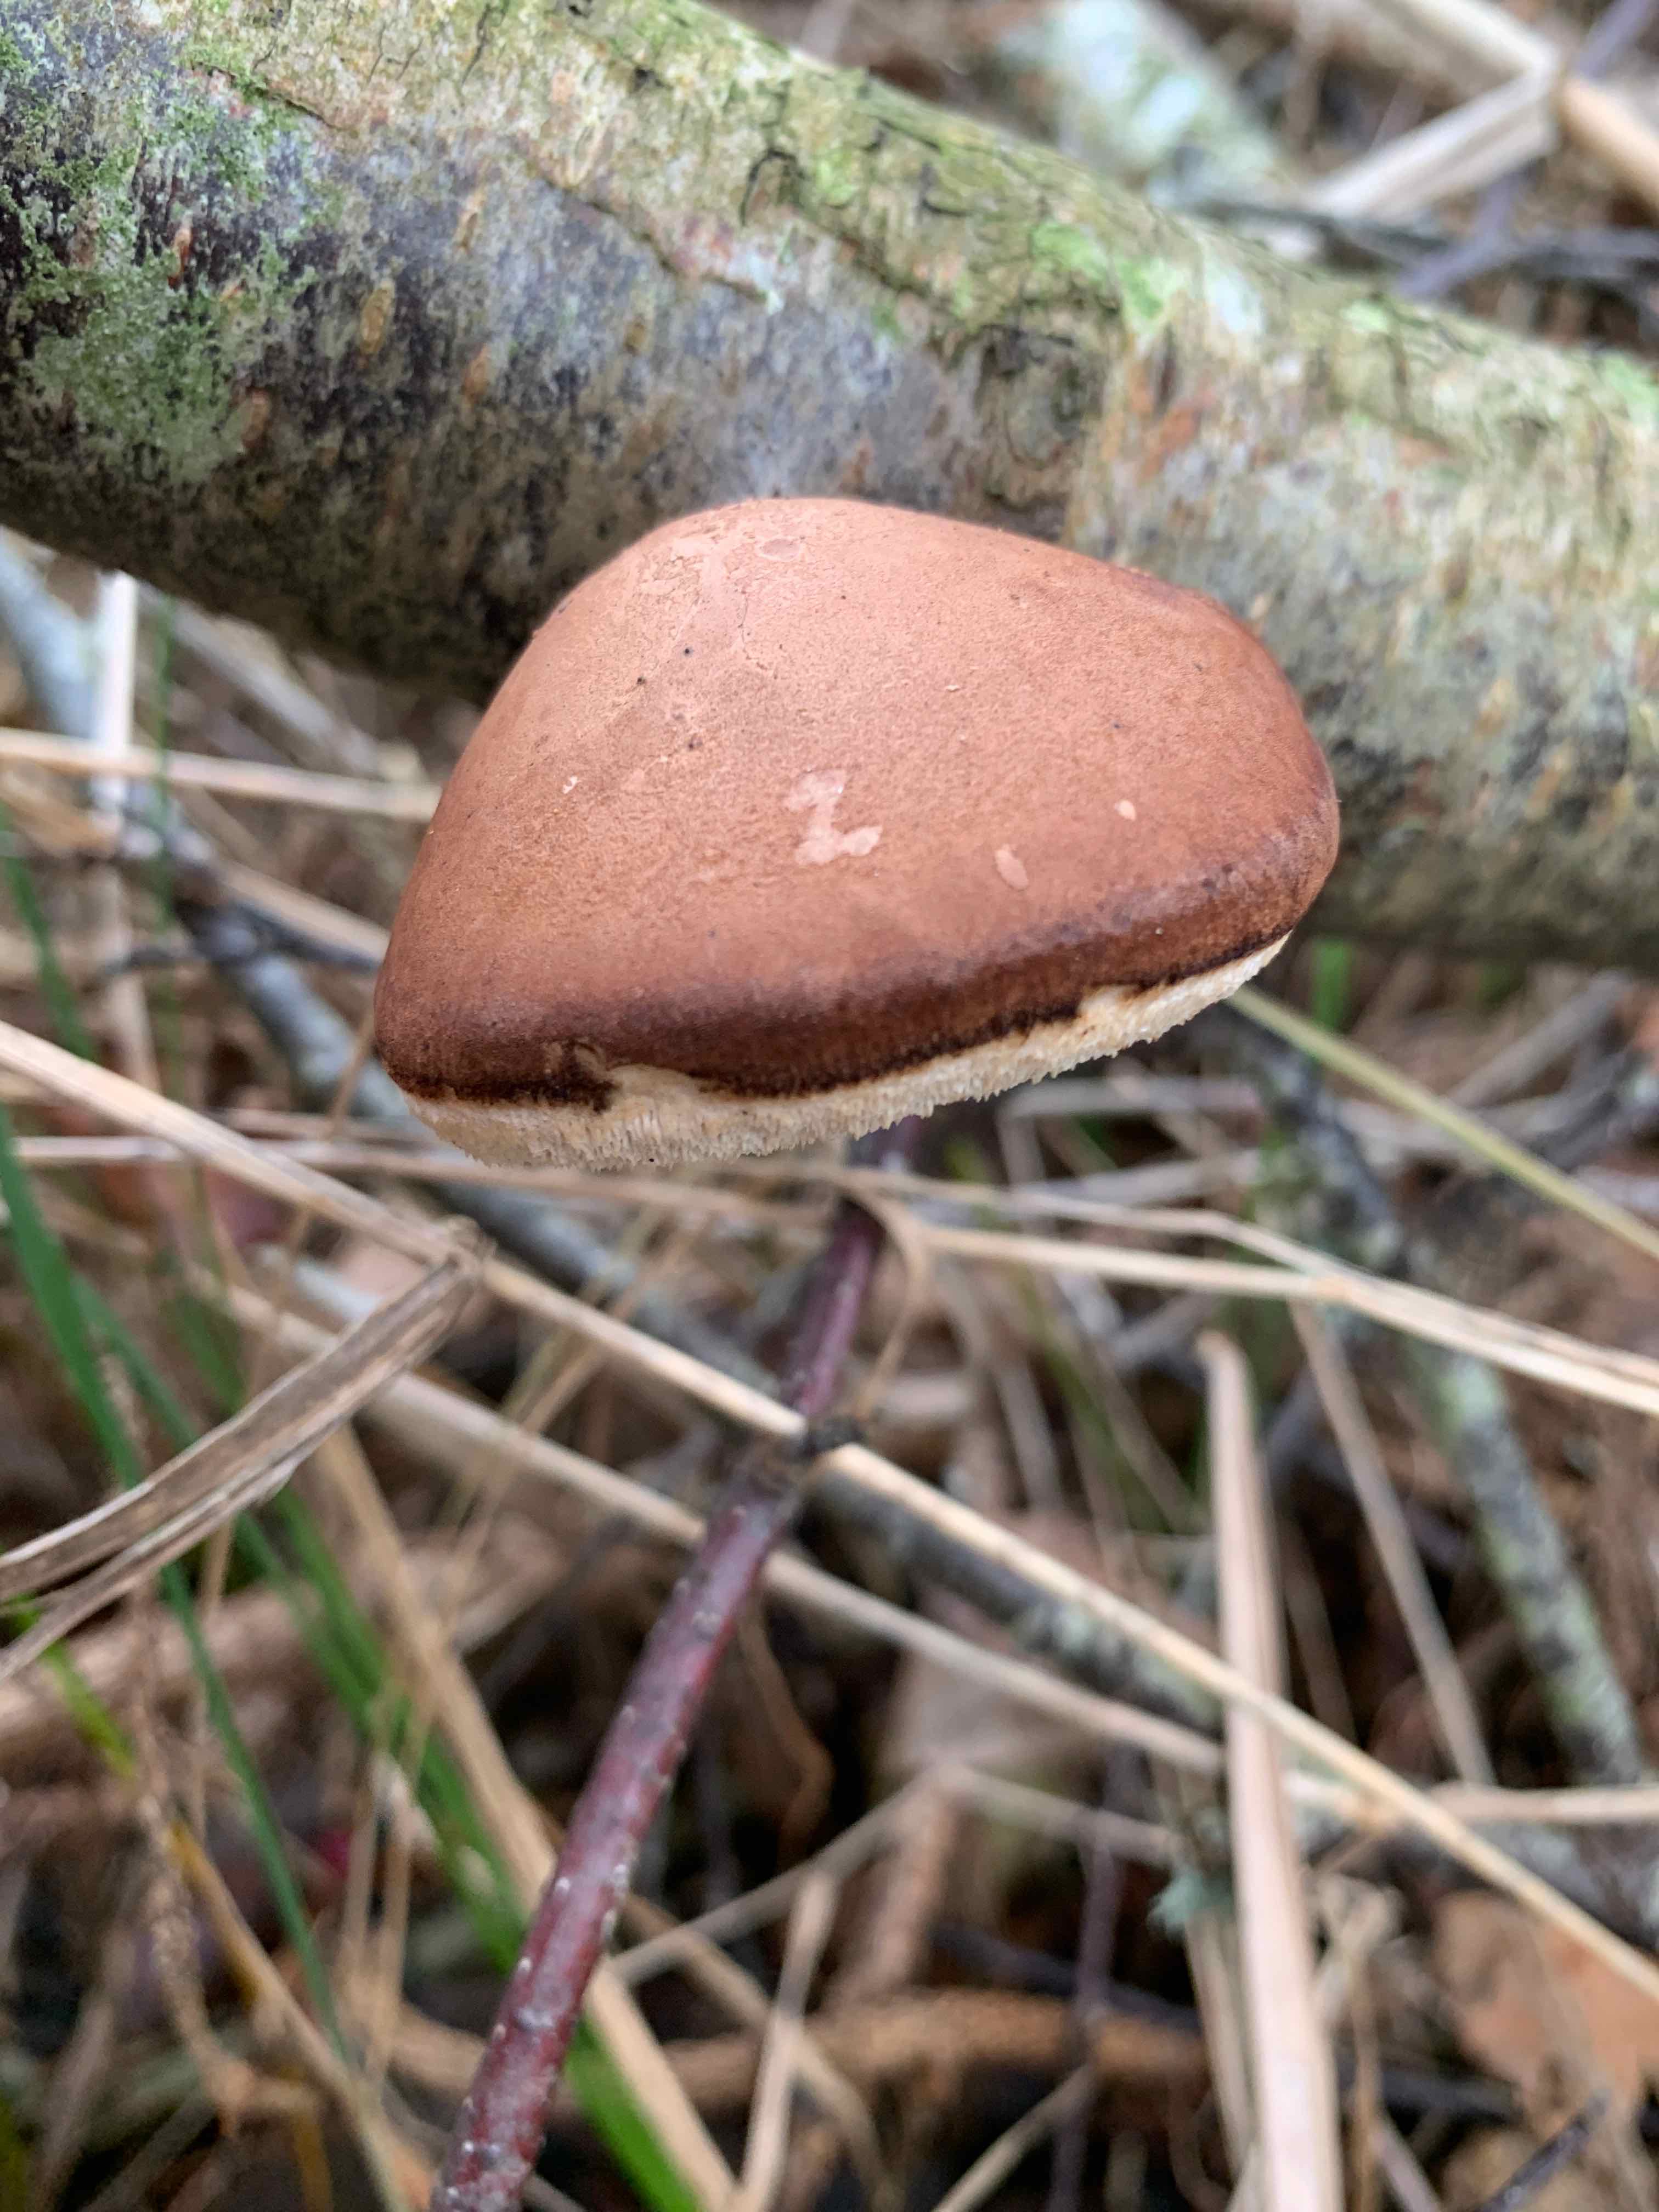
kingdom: Fungi
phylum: Basidiomycota
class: Agaricomycetes
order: Polyporales
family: Fomitopsidaceae
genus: Fomitopsis
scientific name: Fomitopsis betulina
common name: birkeporesvamp
